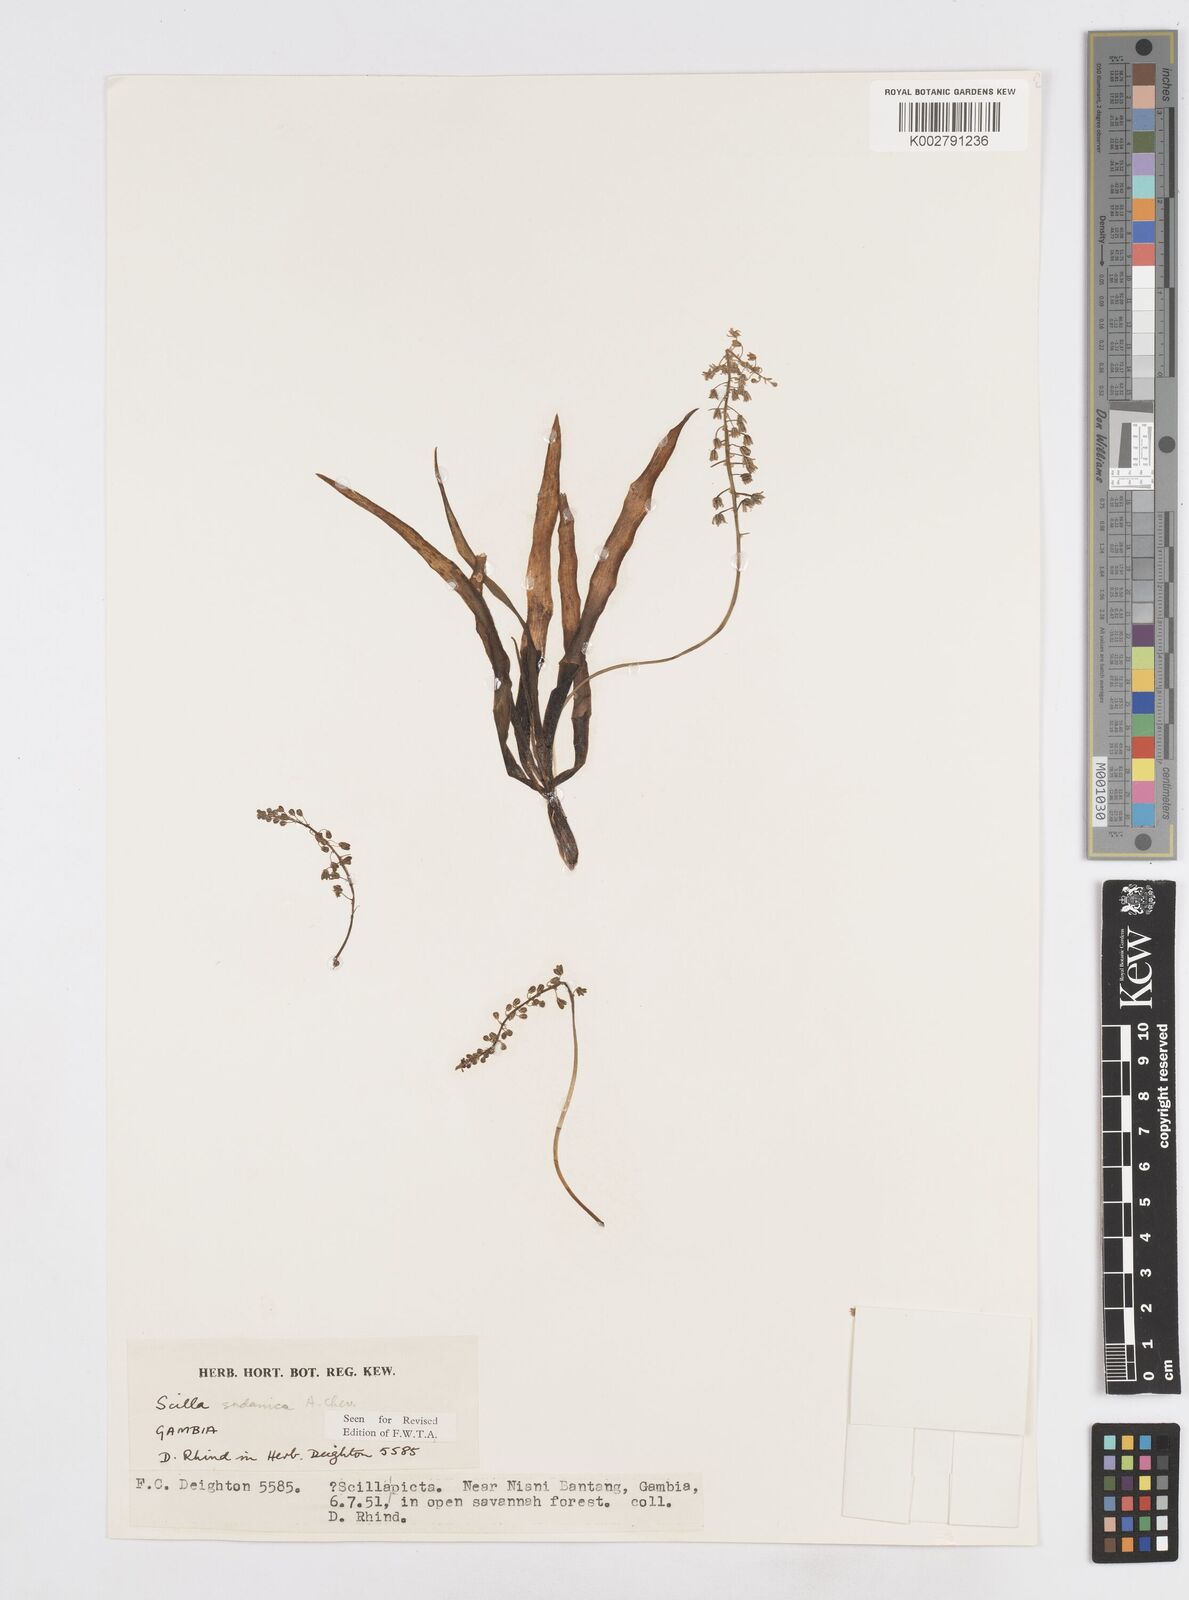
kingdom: Plantae
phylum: Tracheophyta
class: Liliopsida
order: Asparagales
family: Asparagaceae
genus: Ledebouria
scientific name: Ledebouria sudanica
